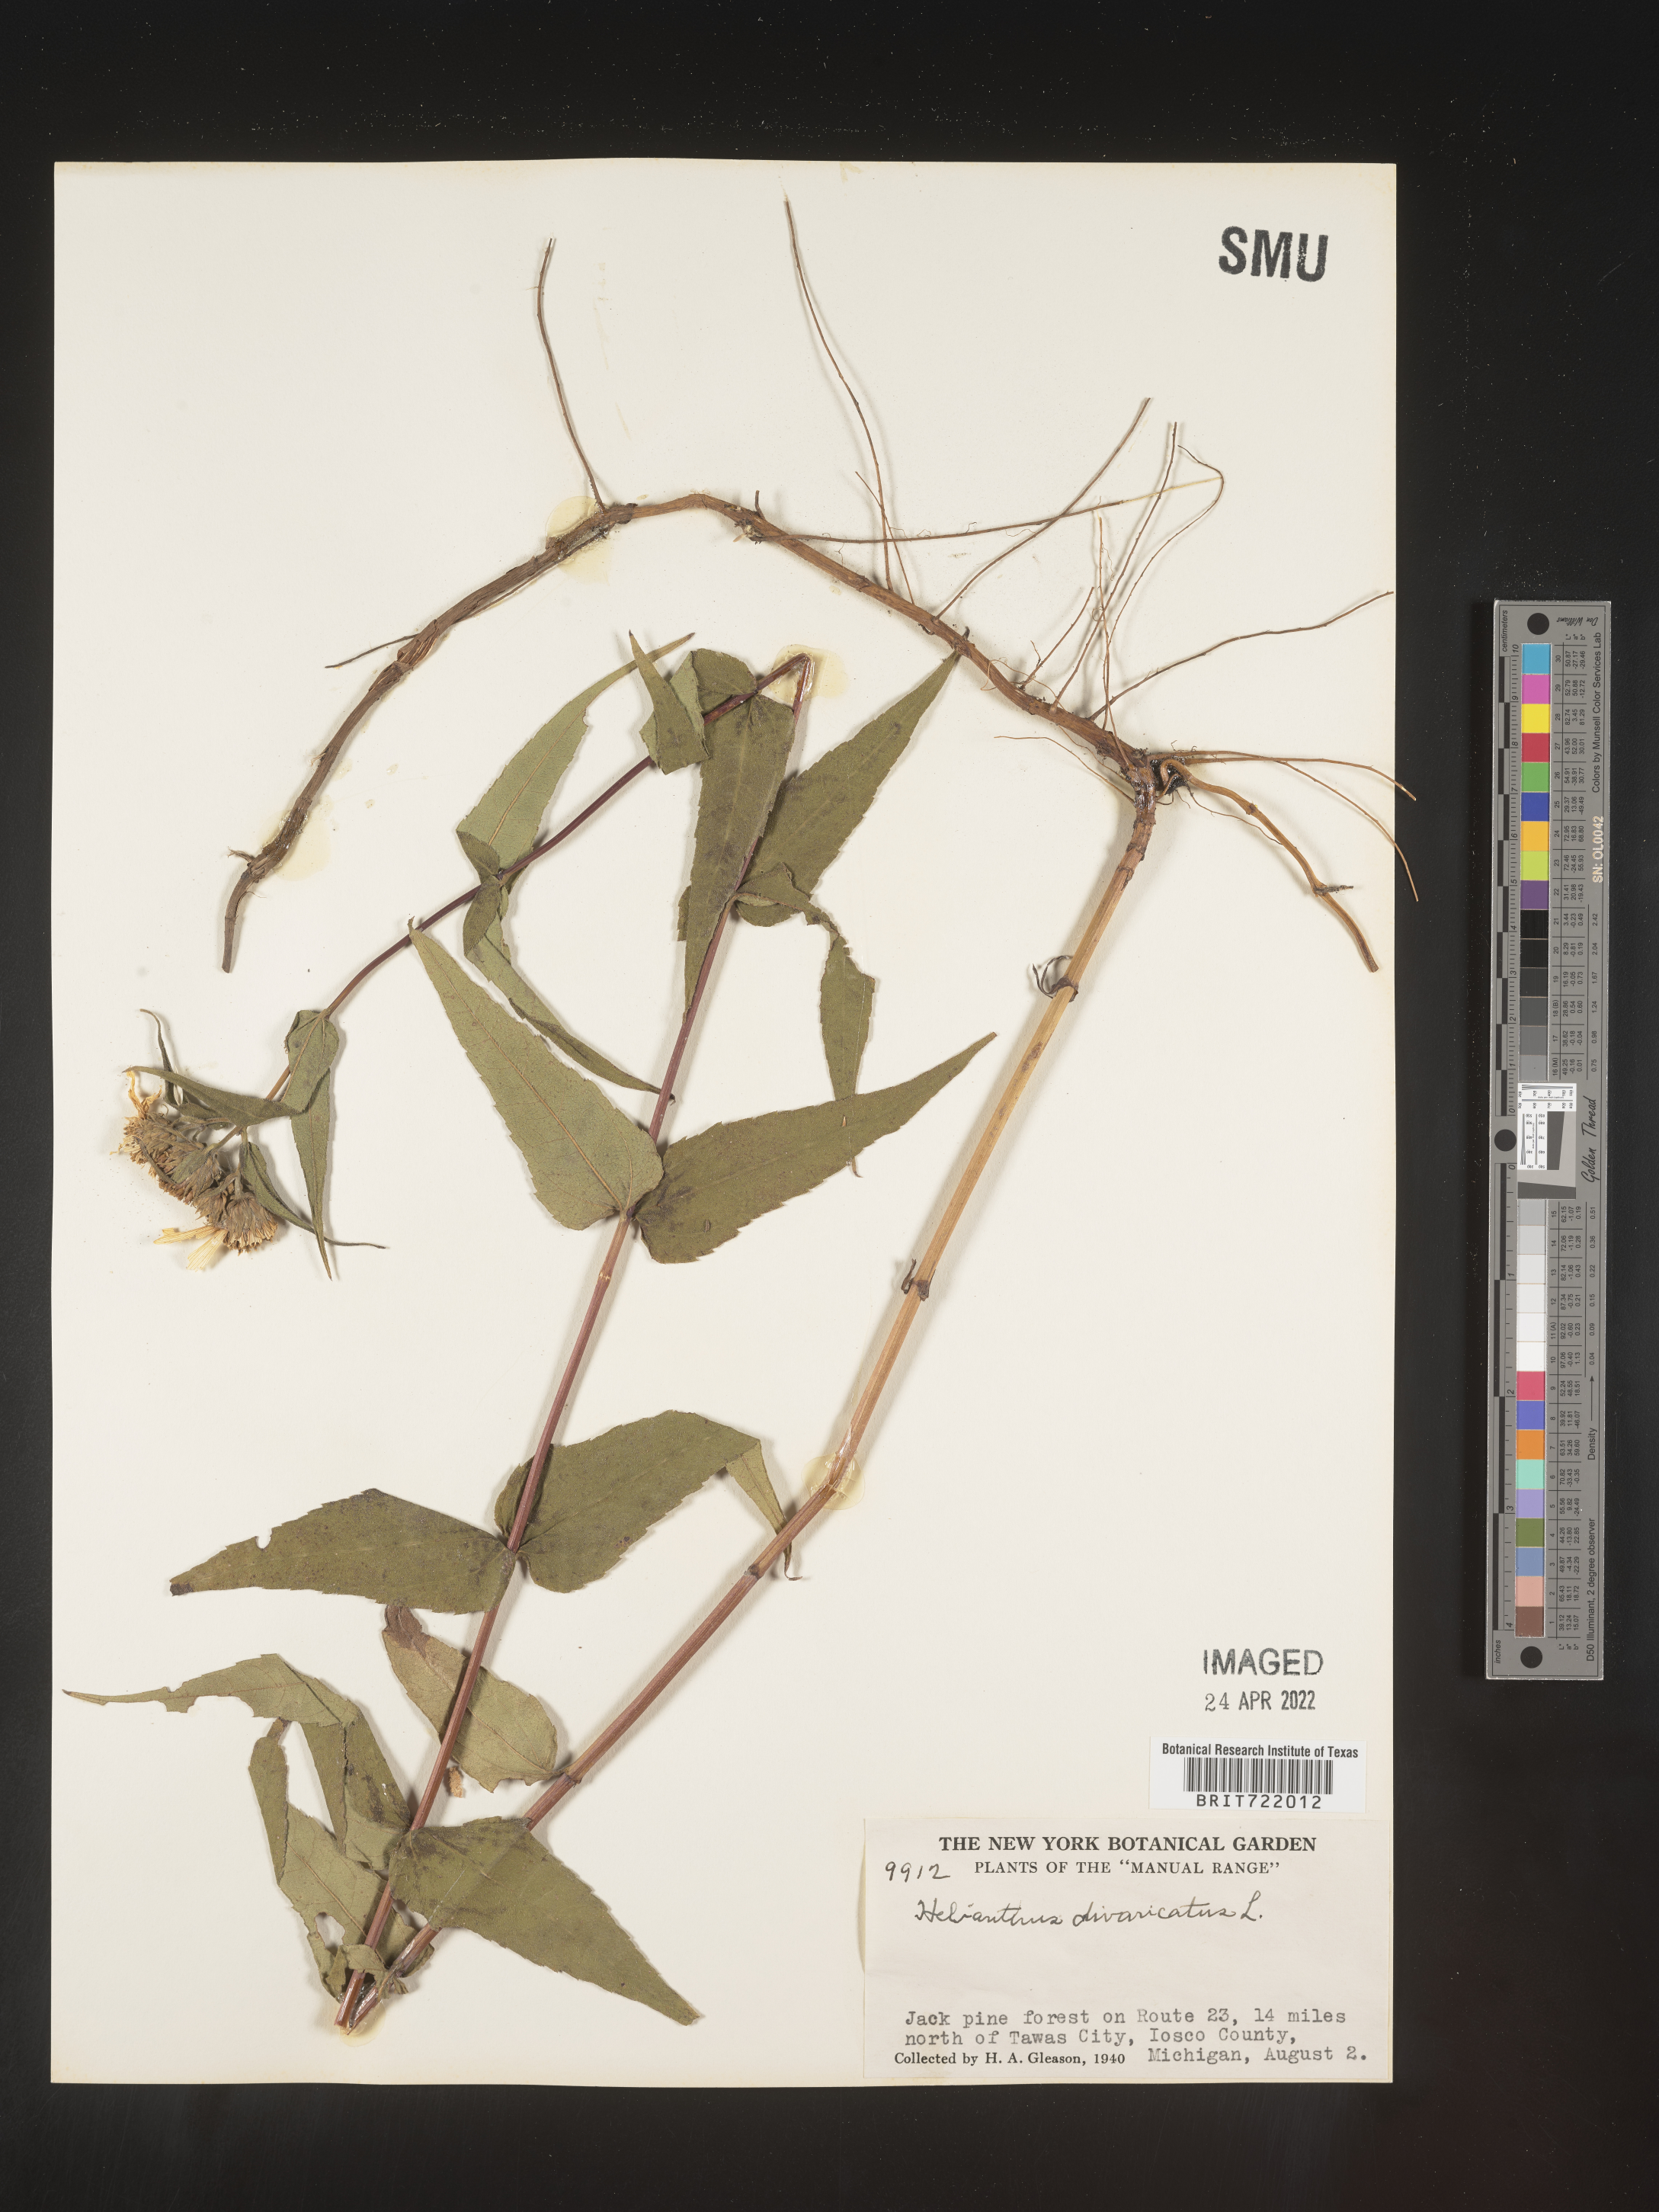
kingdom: Plantae
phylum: Tracheophyta
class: Magnoliopsida
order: Asterales
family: Asteraceae
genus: Helianthus
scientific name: Helianthus divaricatus
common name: Divergent sunflower
